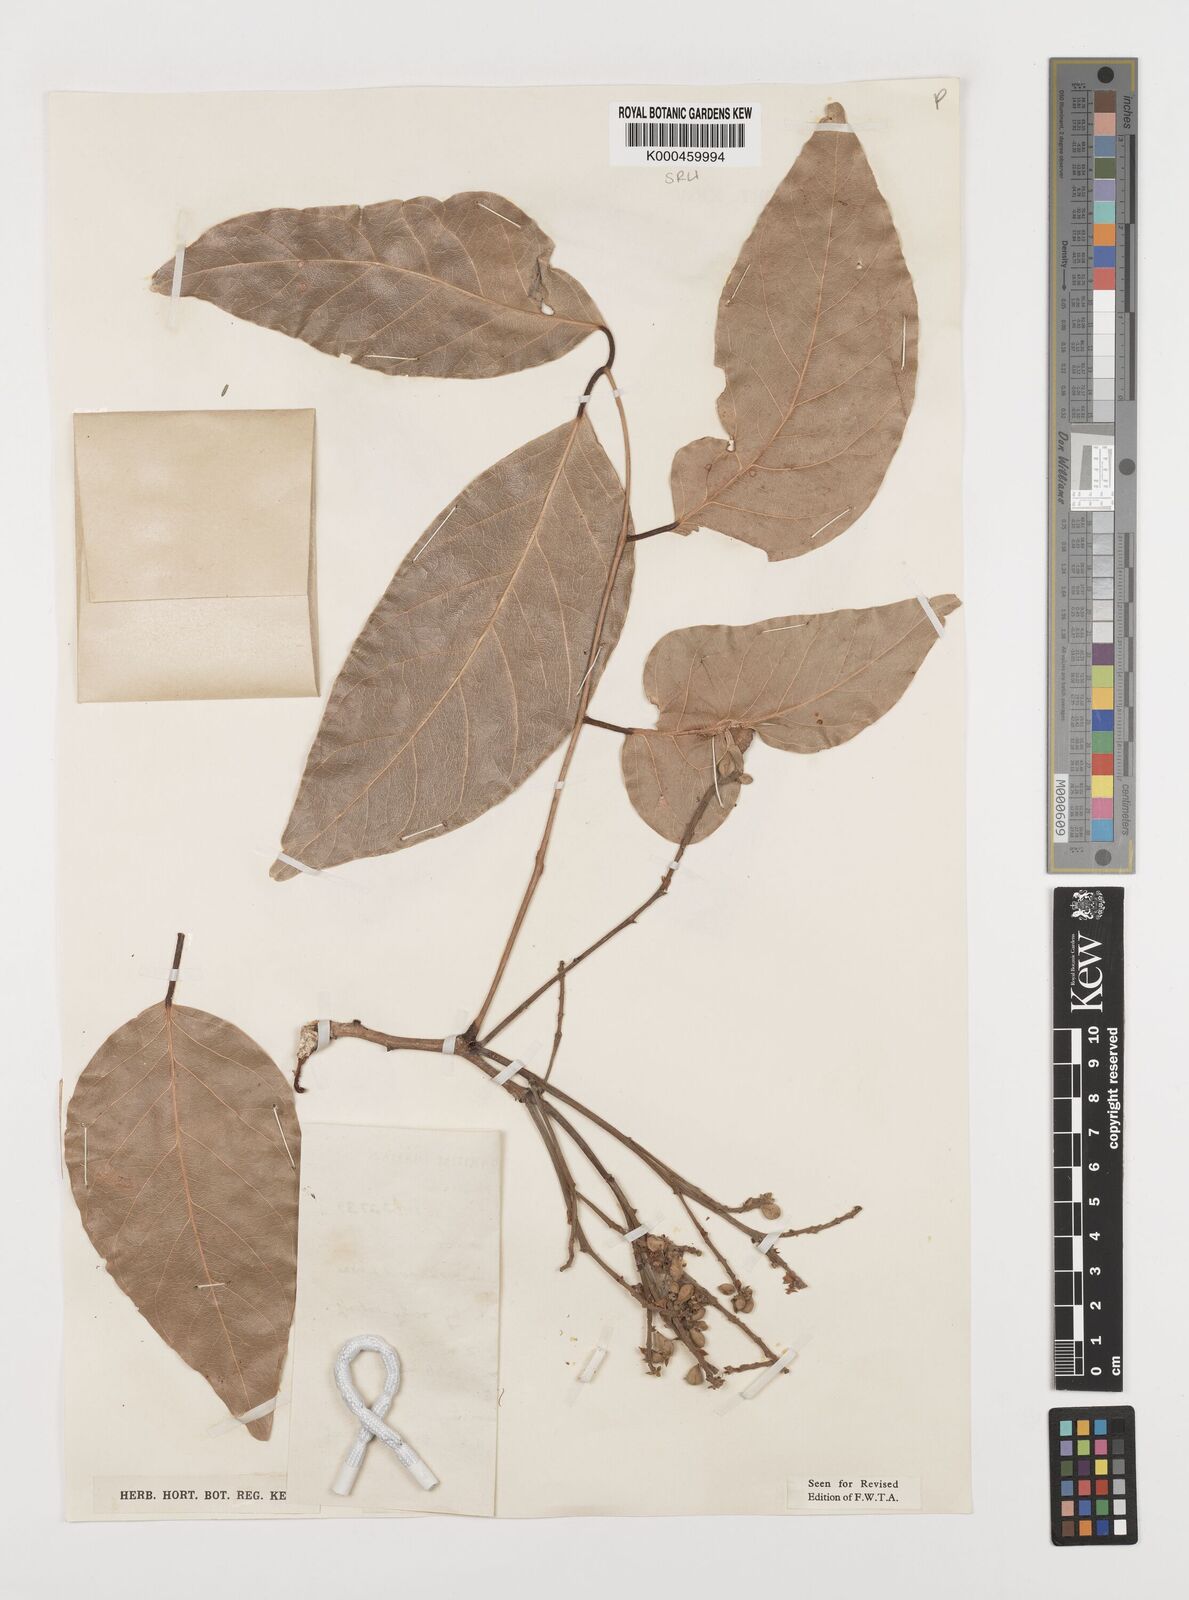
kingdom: Plantae
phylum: Tracheophyta
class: Magnoliopsida
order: Fabales
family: Fabaceae
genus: Isoberlinia
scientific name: Isoberlinia doka
